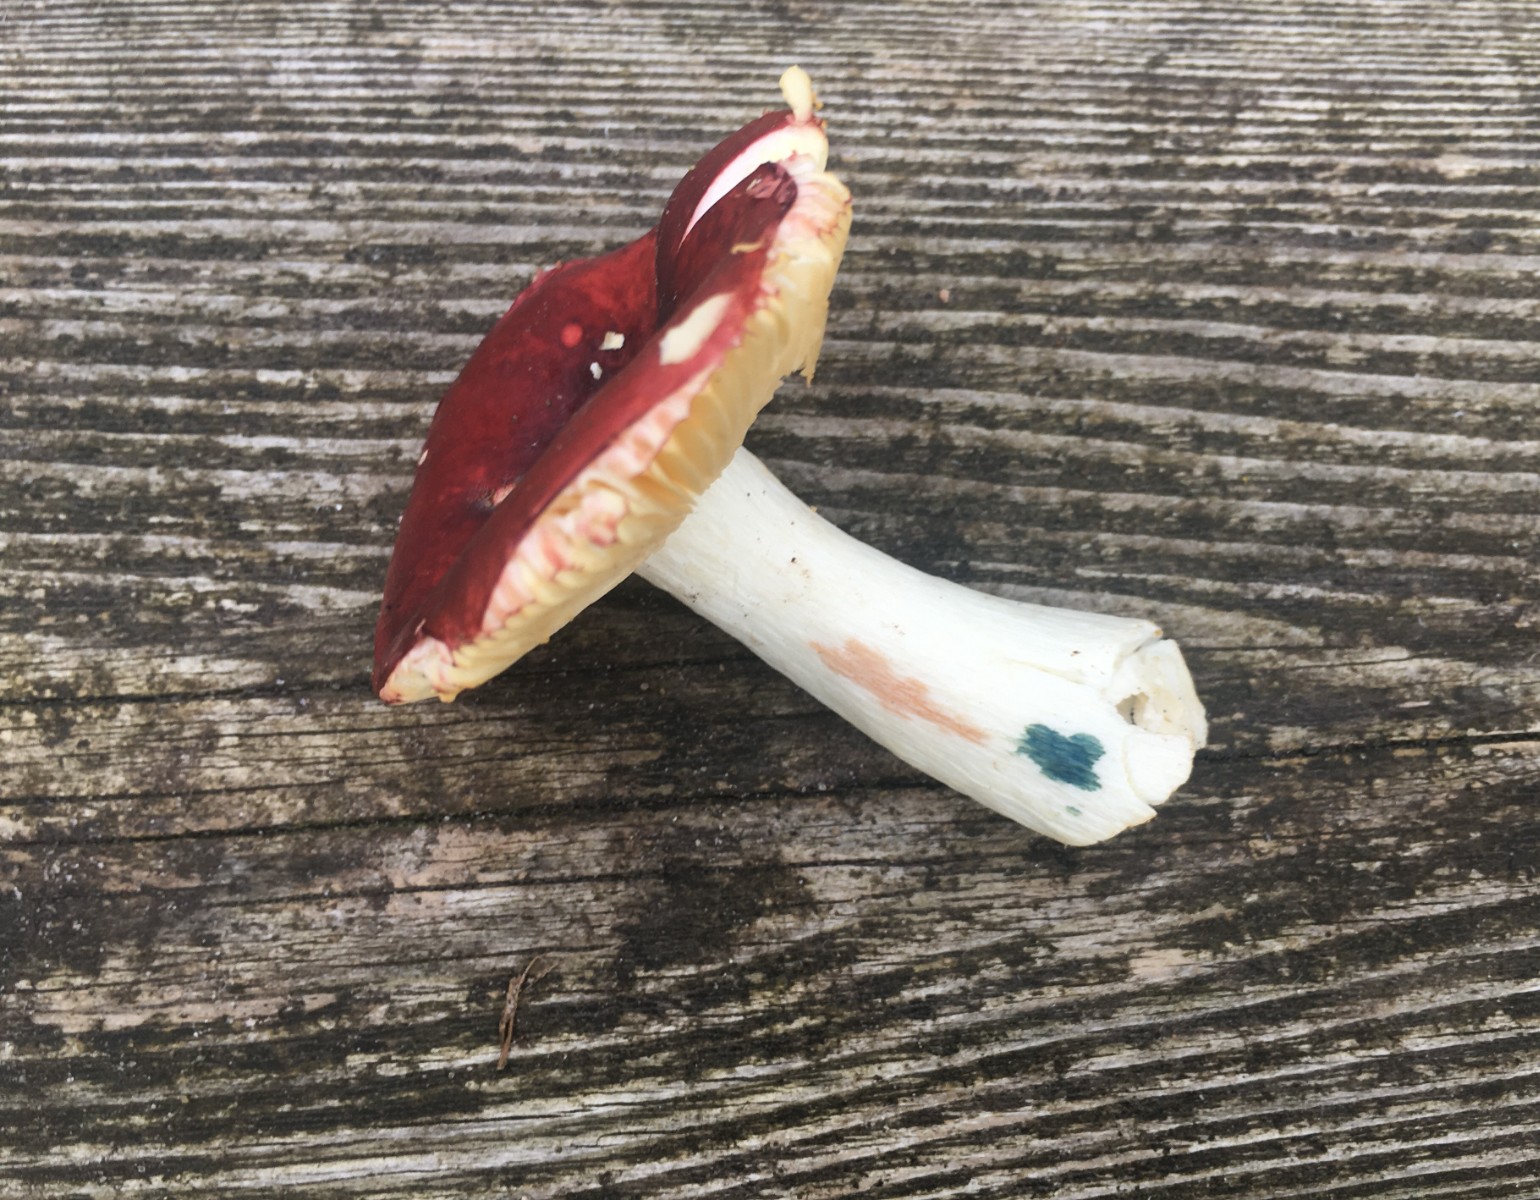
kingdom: Fungi
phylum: Basidiomycota
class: Agaricomycetes
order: Russulales
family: Russulaceae
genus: Russula
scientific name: Russula firmula
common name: nåleskarp skørhat
